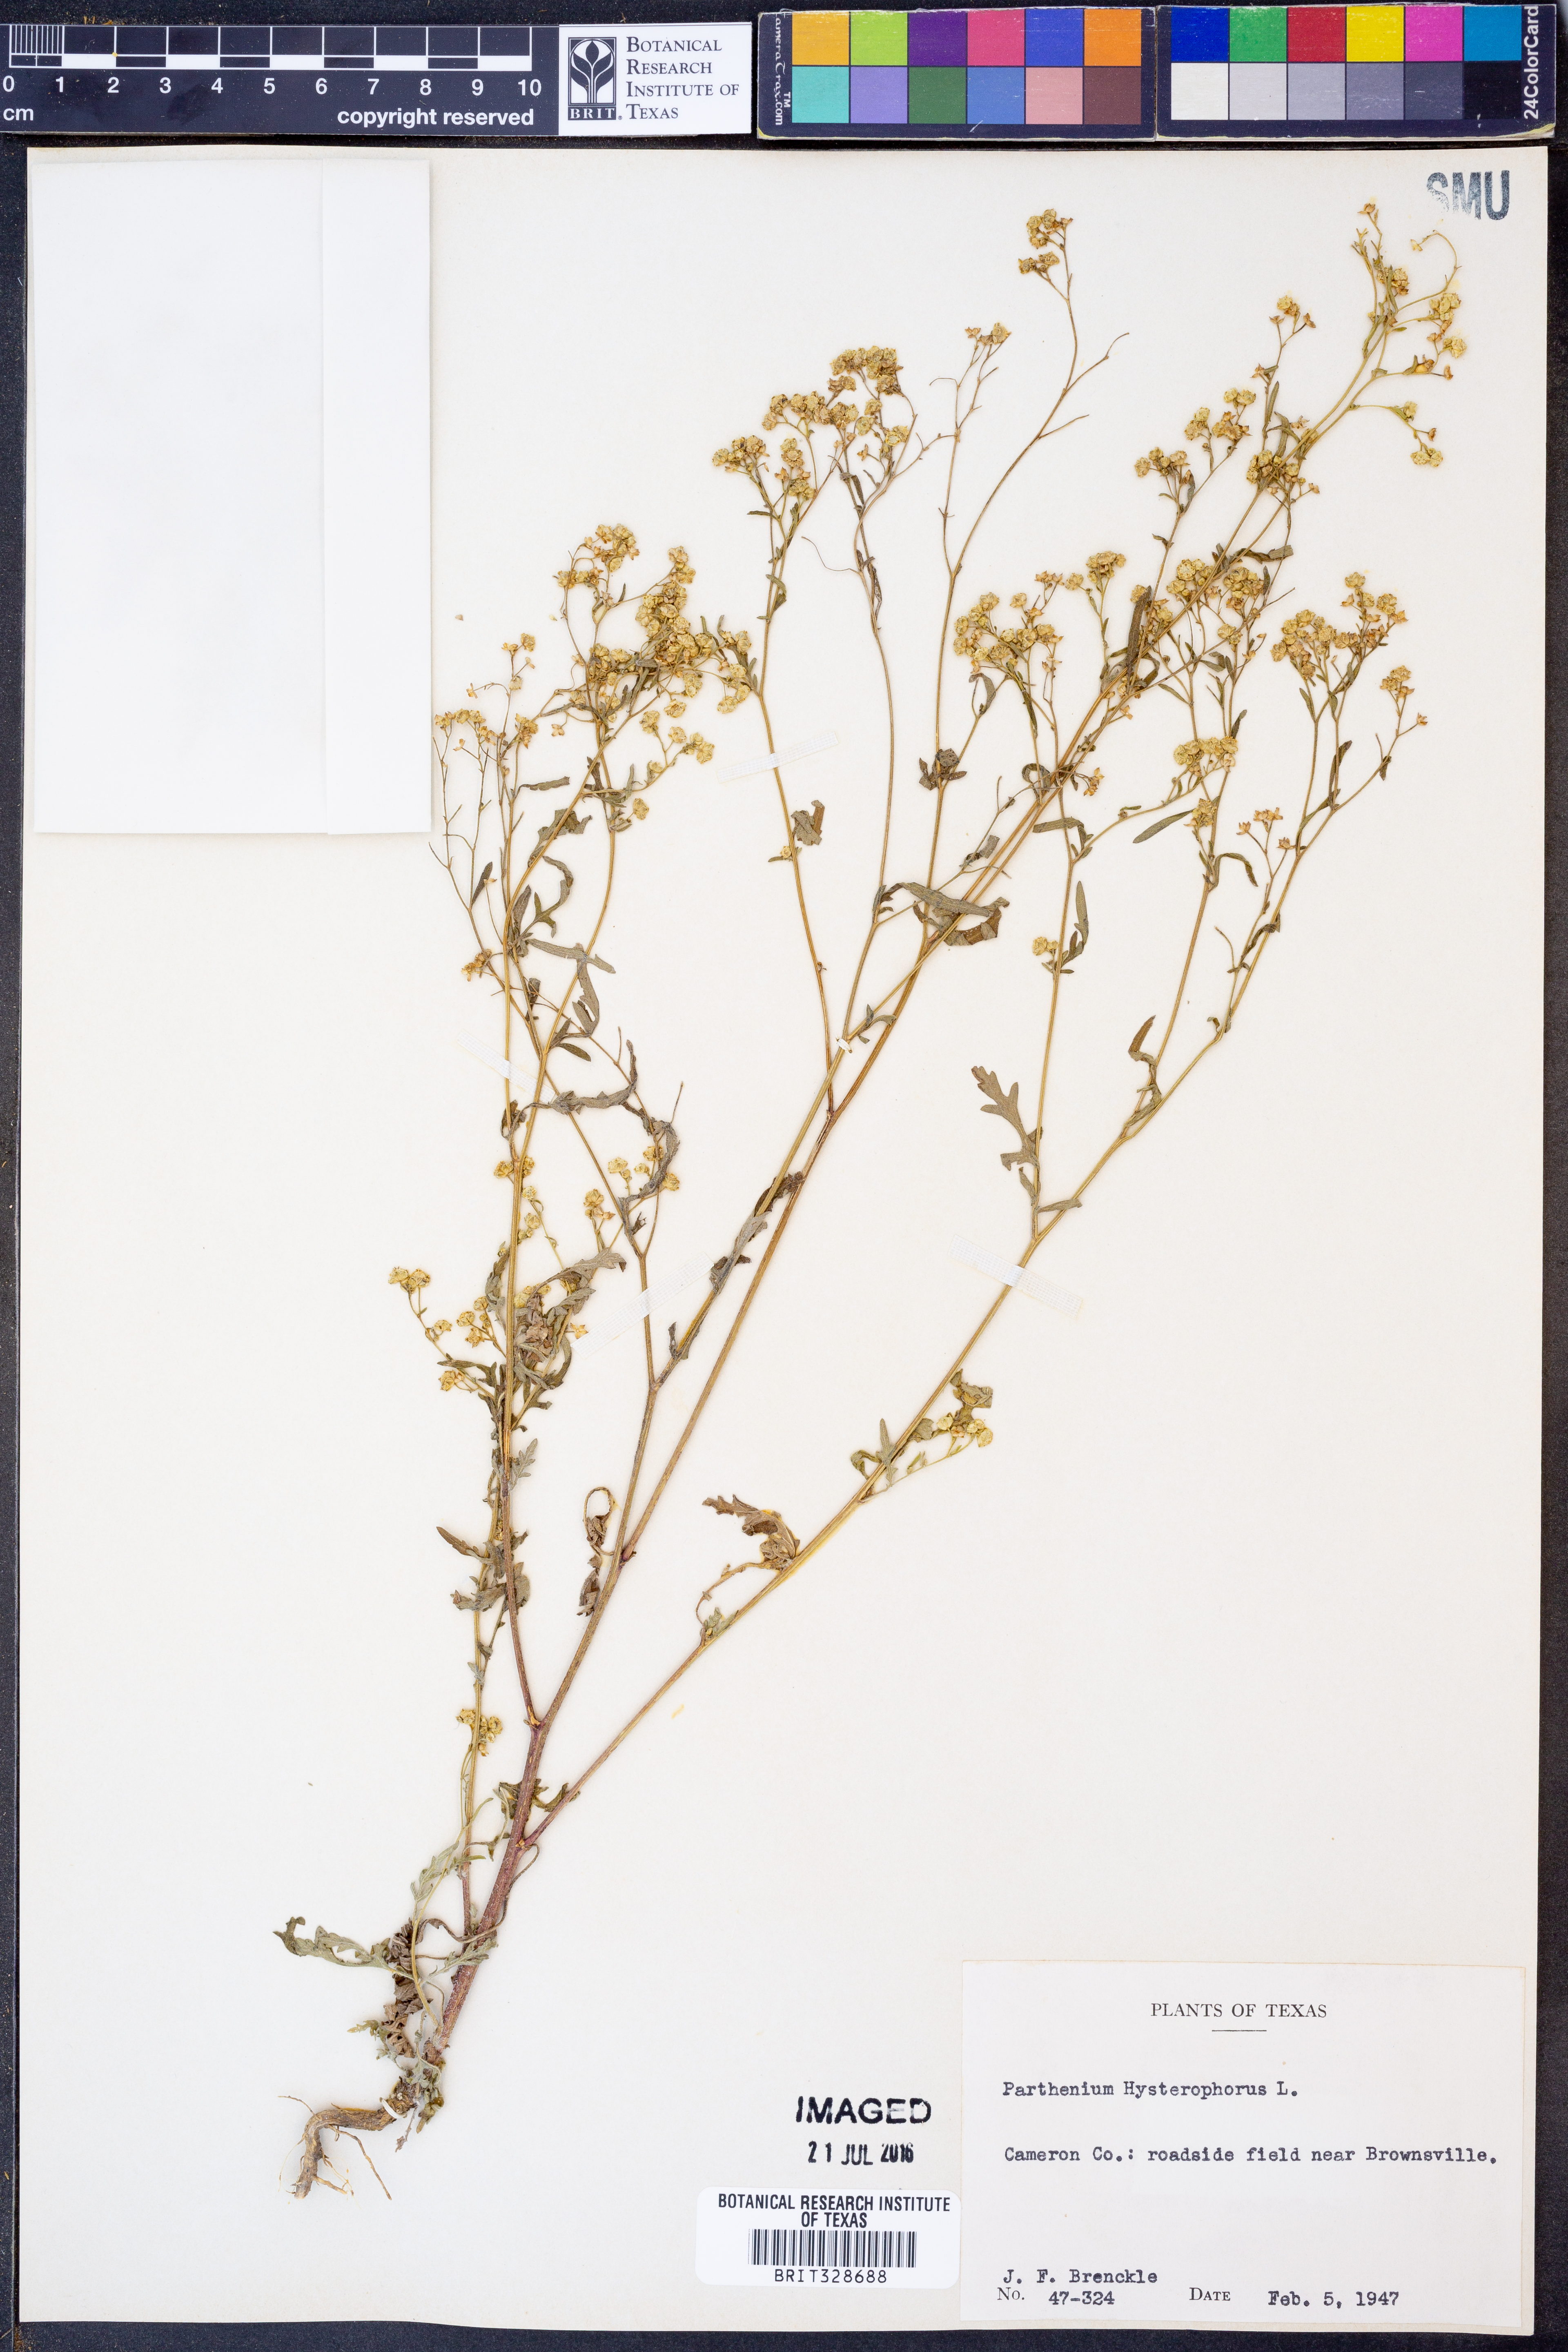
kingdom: Plantae
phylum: Tracheophyta
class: Magnoliopsida
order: Asterales
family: Asteraceae
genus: Parthenium
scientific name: Parthenium hysterophorus
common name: Santa maria feverfew
